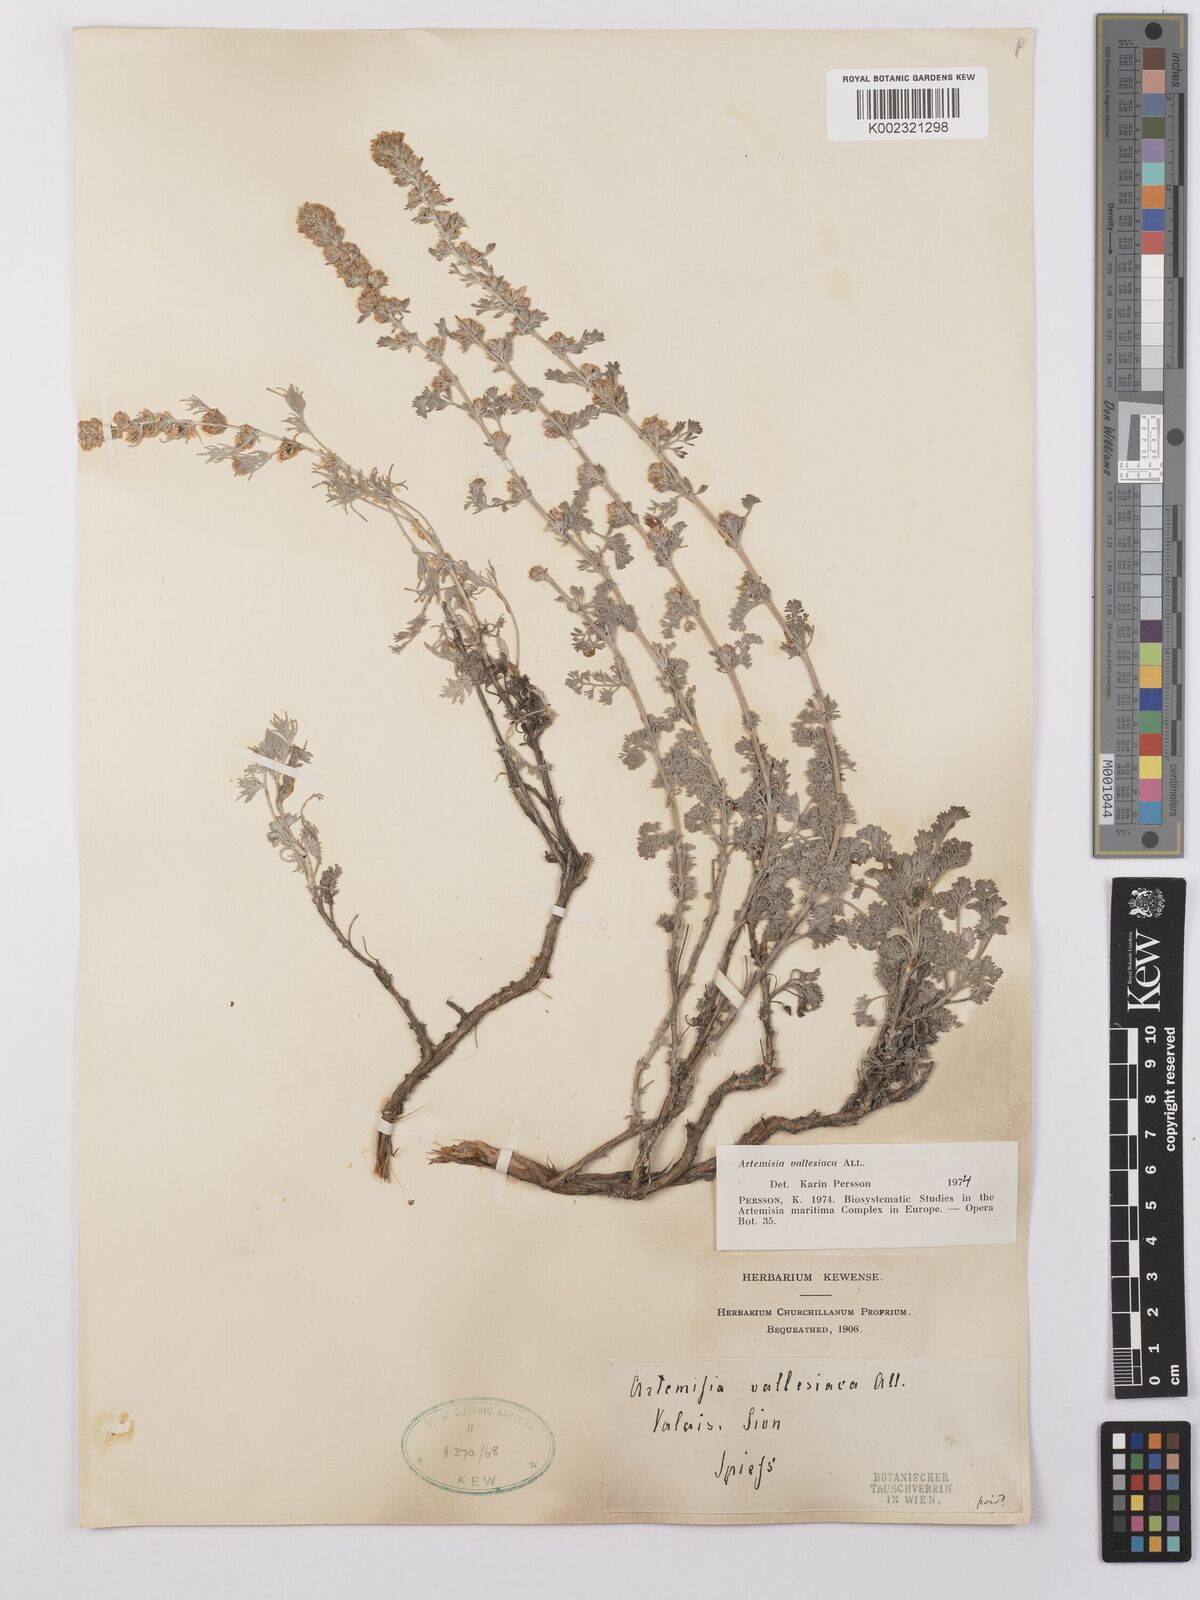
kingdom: Plantae
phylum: Tracheophyta
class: Magnoliopsida
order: Asterales
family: Asteraceae
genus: Artemisia
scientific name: Artemisia vallesiaca
